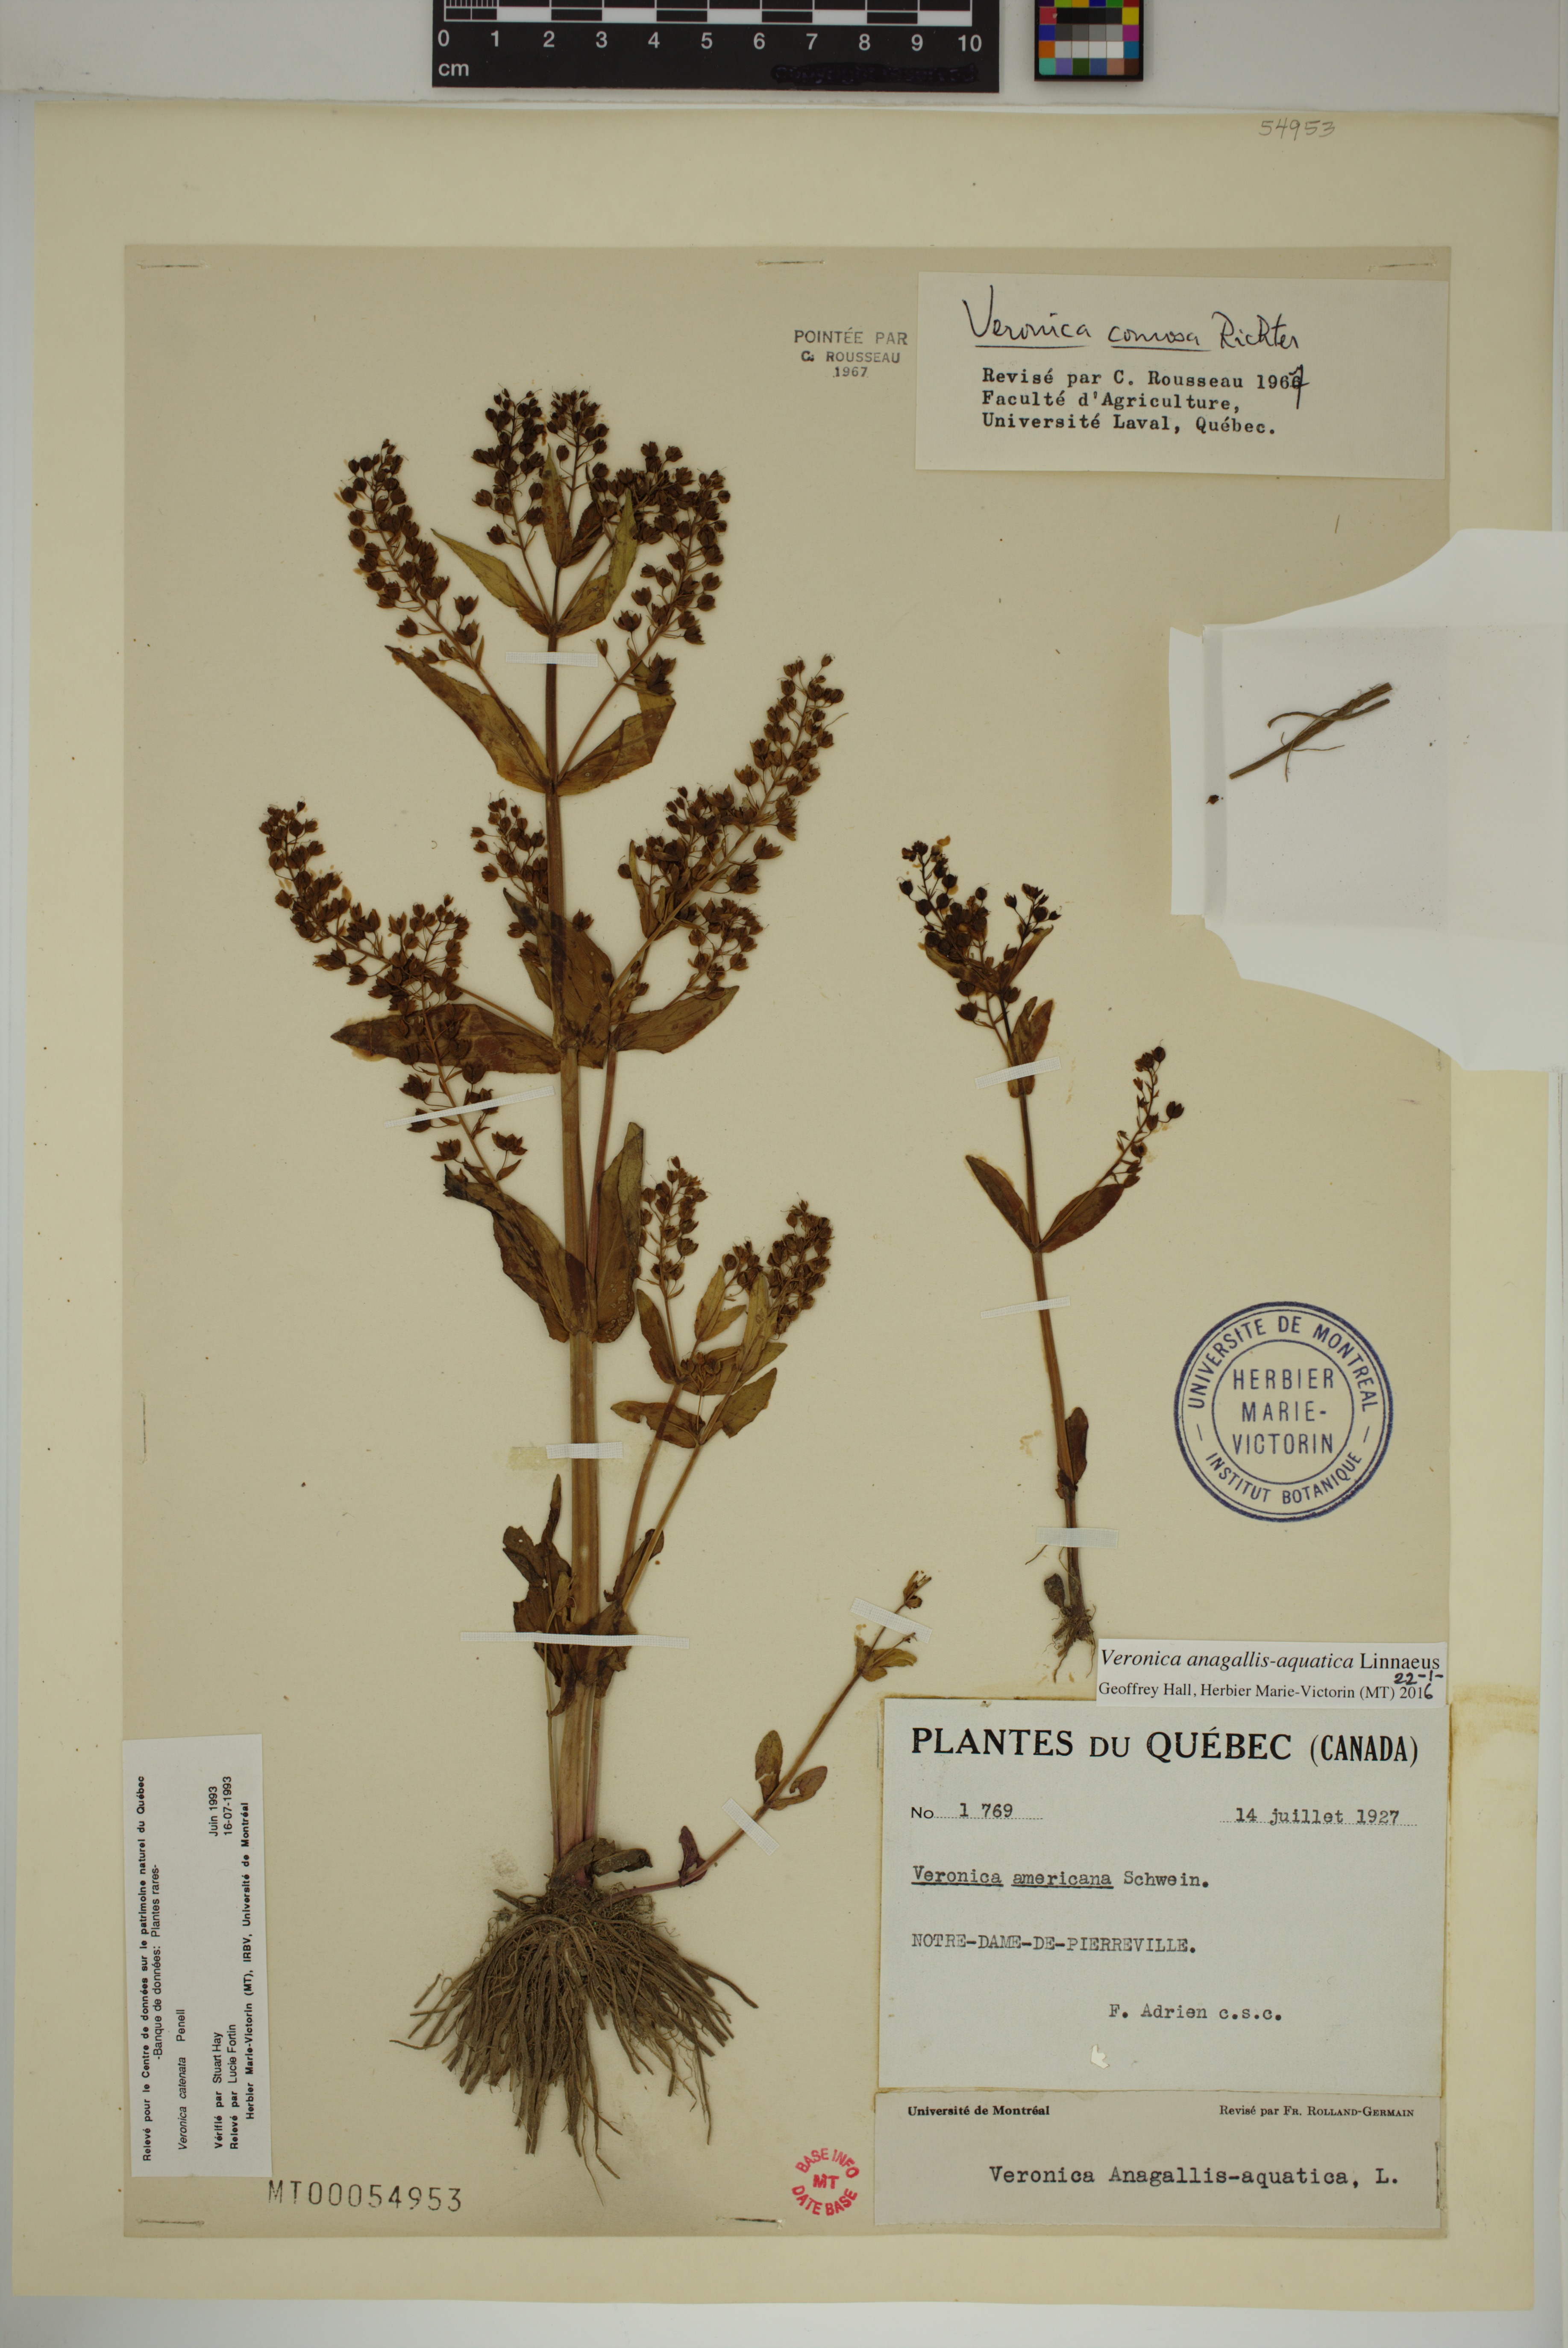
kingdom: Plantae
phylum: Tracheophyta
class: Magnoliopsida
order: Lamiales
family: Plantaginaceae
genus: Veronica
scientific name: Veronica anagallis-aquatica
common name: Water speedwell
